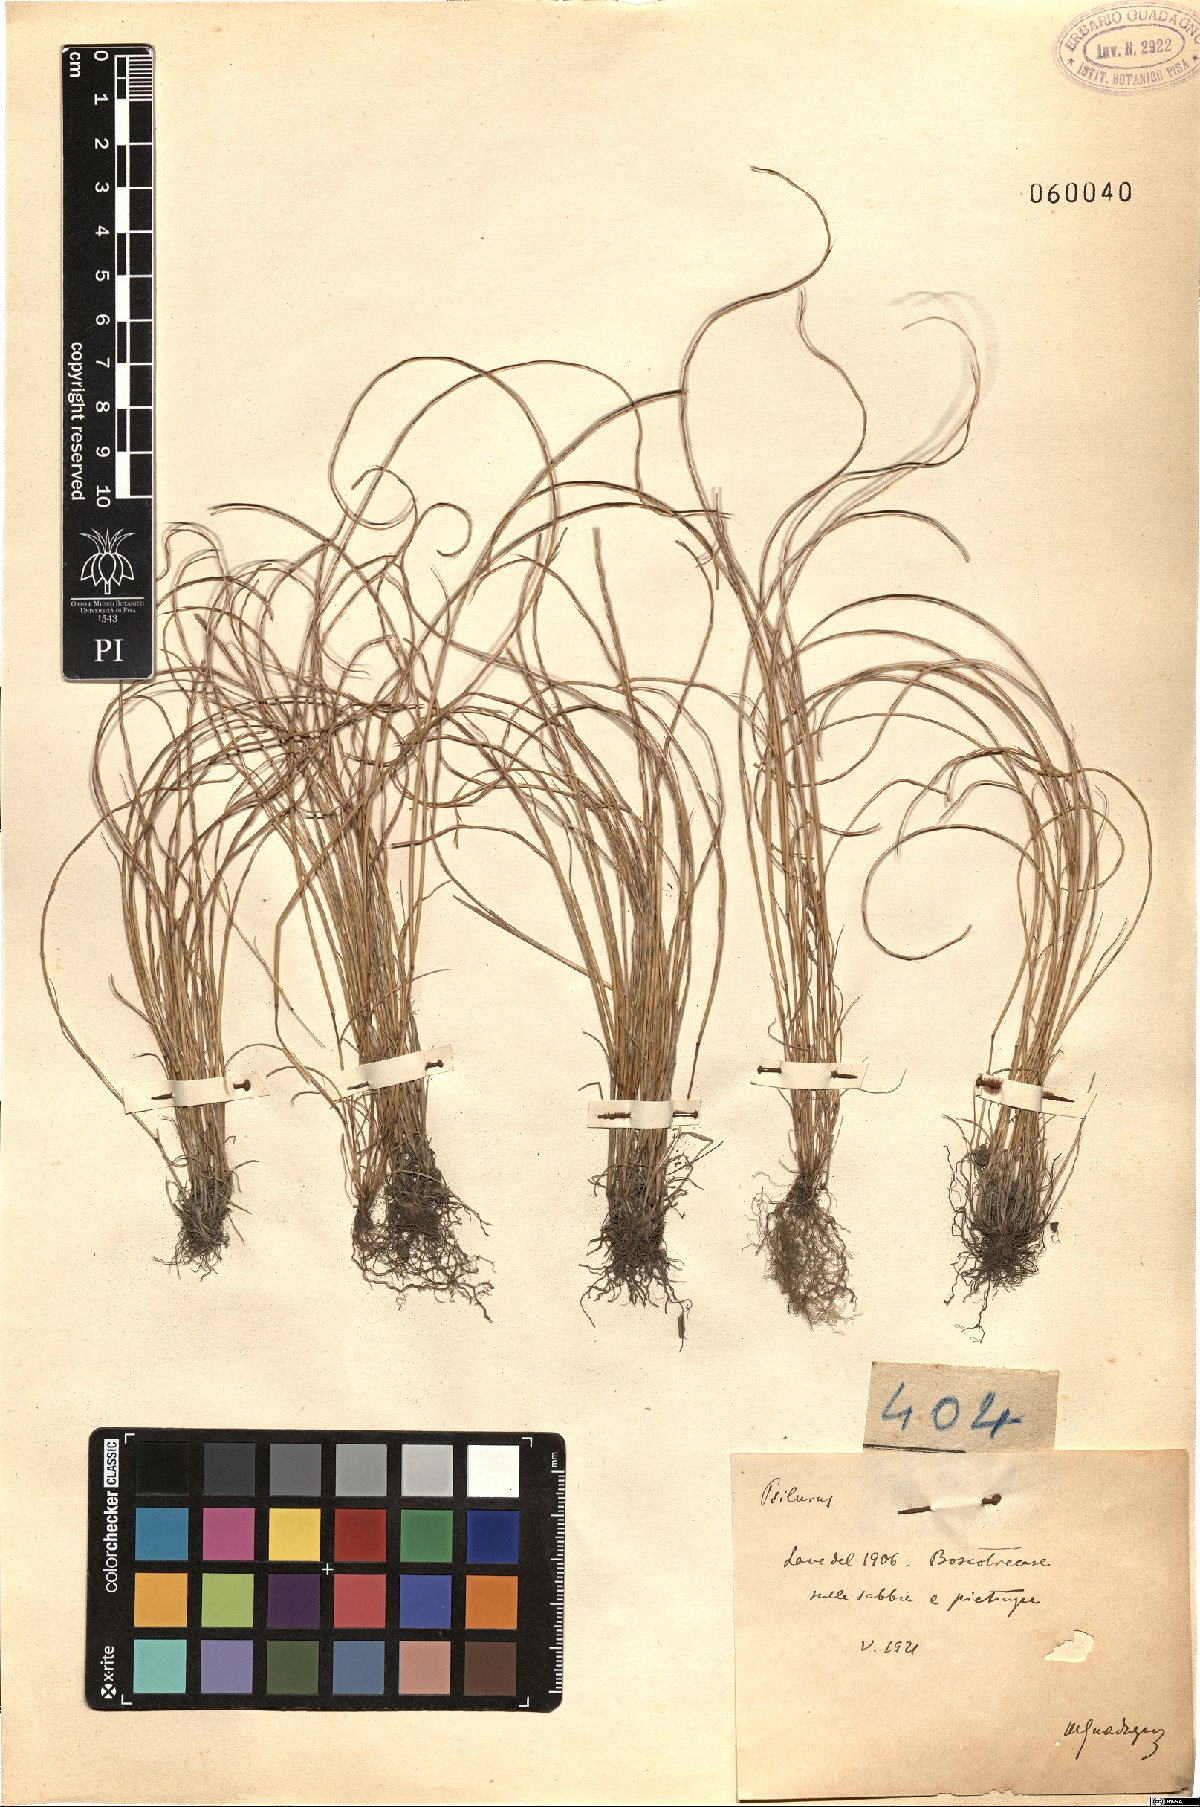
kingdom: Plantae
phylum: Tracheophyta
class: Liliopsida
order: Poales
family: Poaceae
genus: Festuca
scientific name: Festuca
